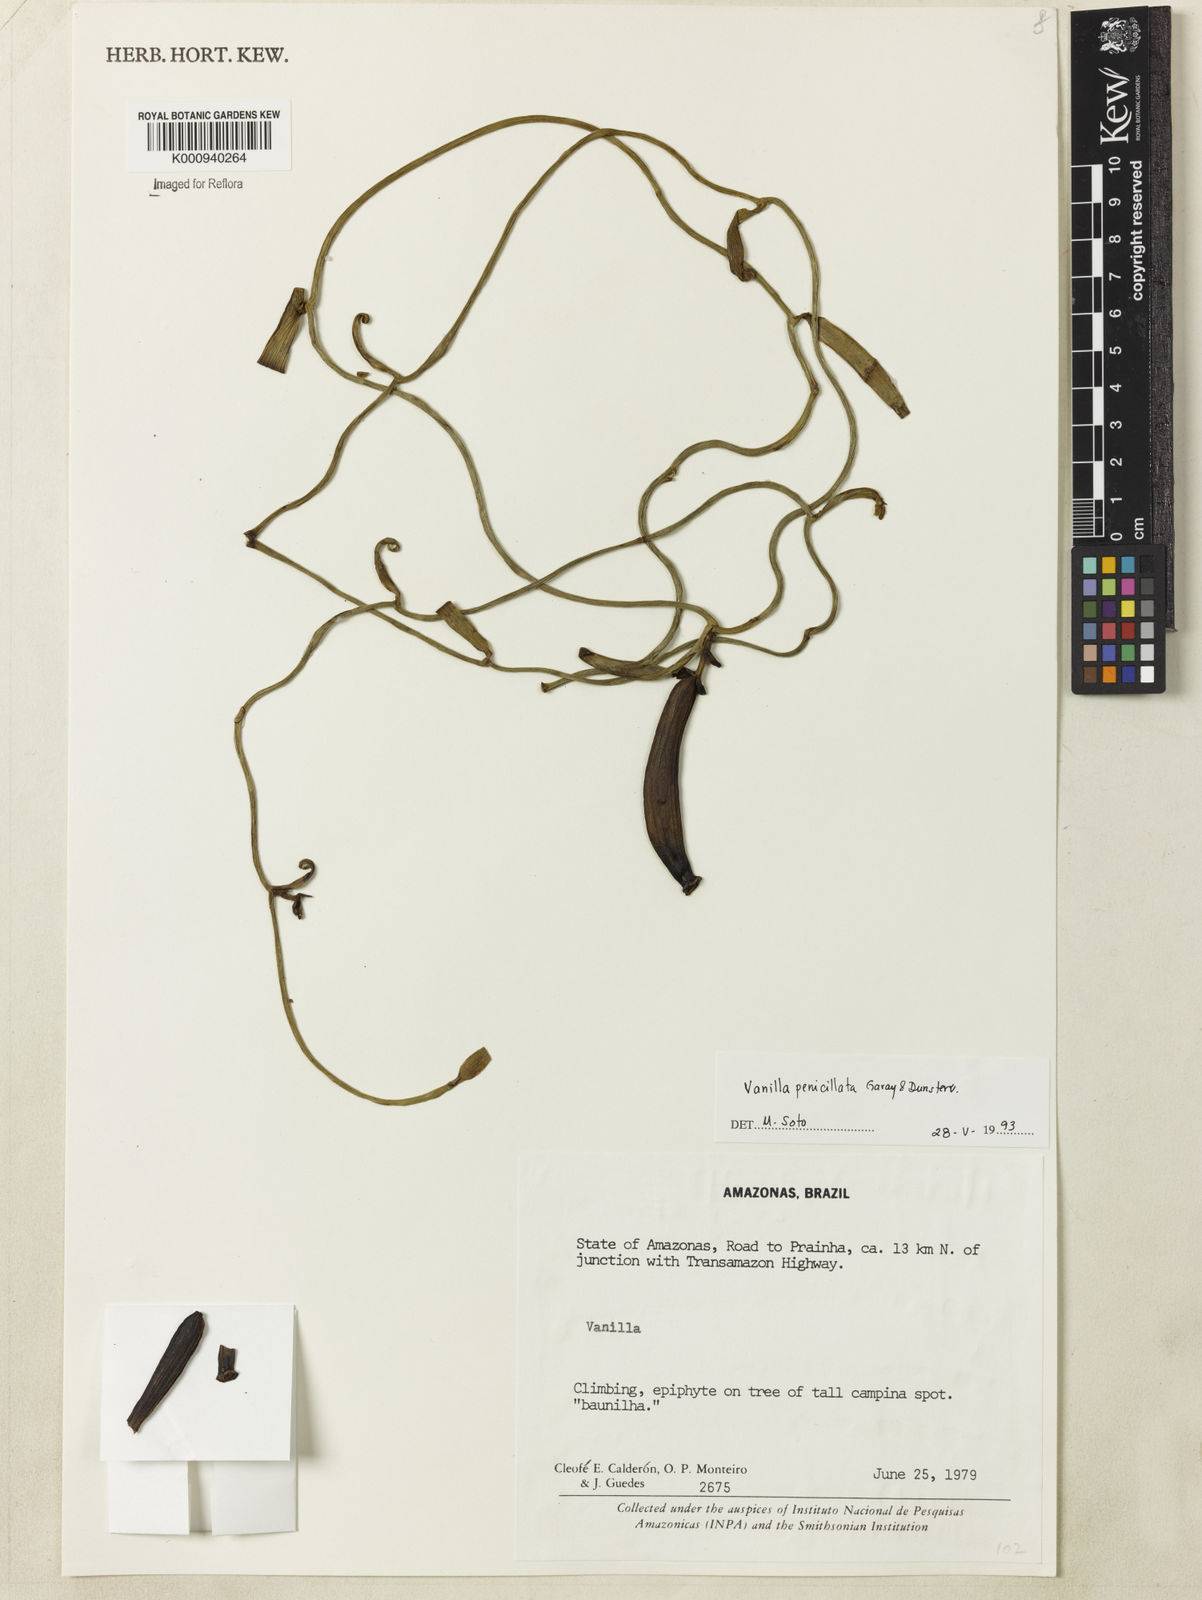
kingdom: Plantae
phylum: Tracheophyta
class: Liliopsida
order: Asparagales
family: Orchidaceae
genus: Vanilla
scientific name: Vanilla penicillata
